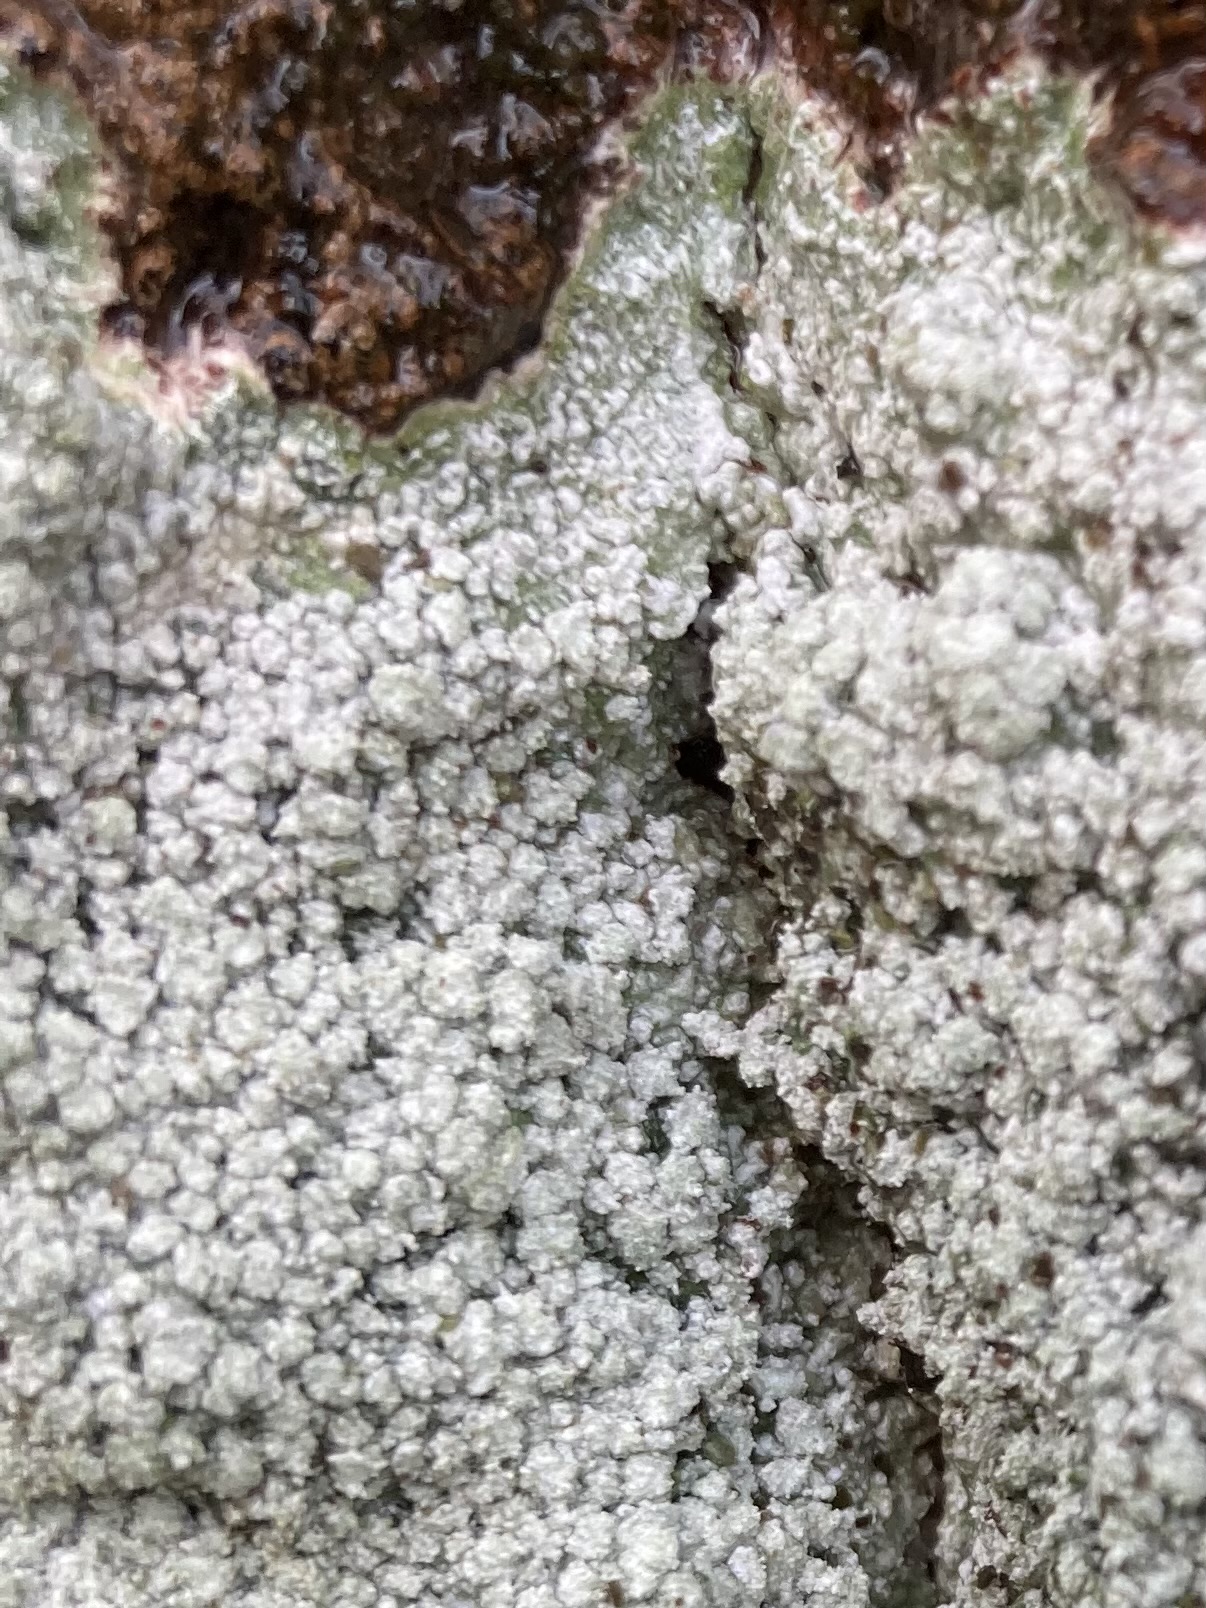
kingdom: Fungi
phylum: Ascomycota
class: Lecanoromycetes
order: Pertusariales
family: Pertusariaceae
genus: Lepra
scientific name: Lepra amara
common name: bitter prikvortelav
